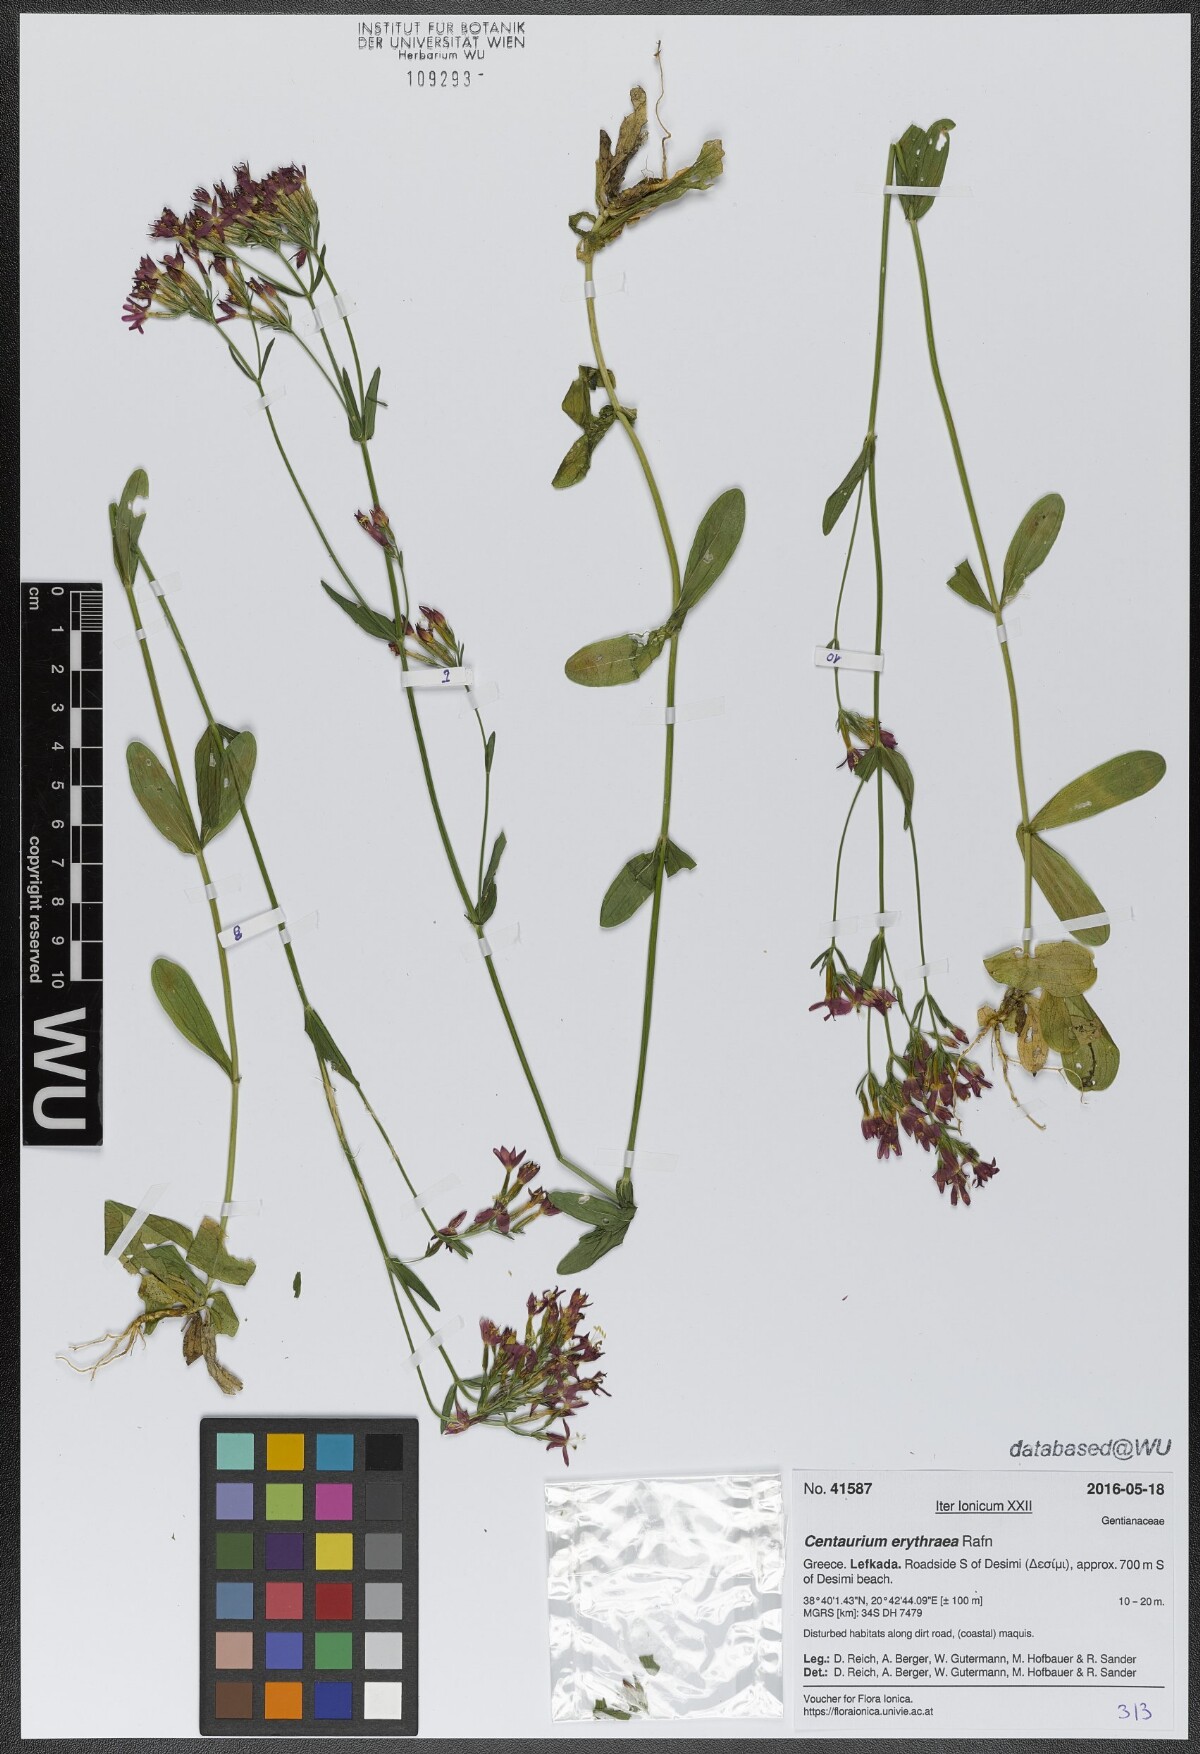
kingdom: Plantae
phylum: Tracheophyta
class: Magnoliopsida
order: Gentianales
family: Gentianaceae
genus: Centaurium
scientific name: Centaurium erythraea
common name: Common centaury
